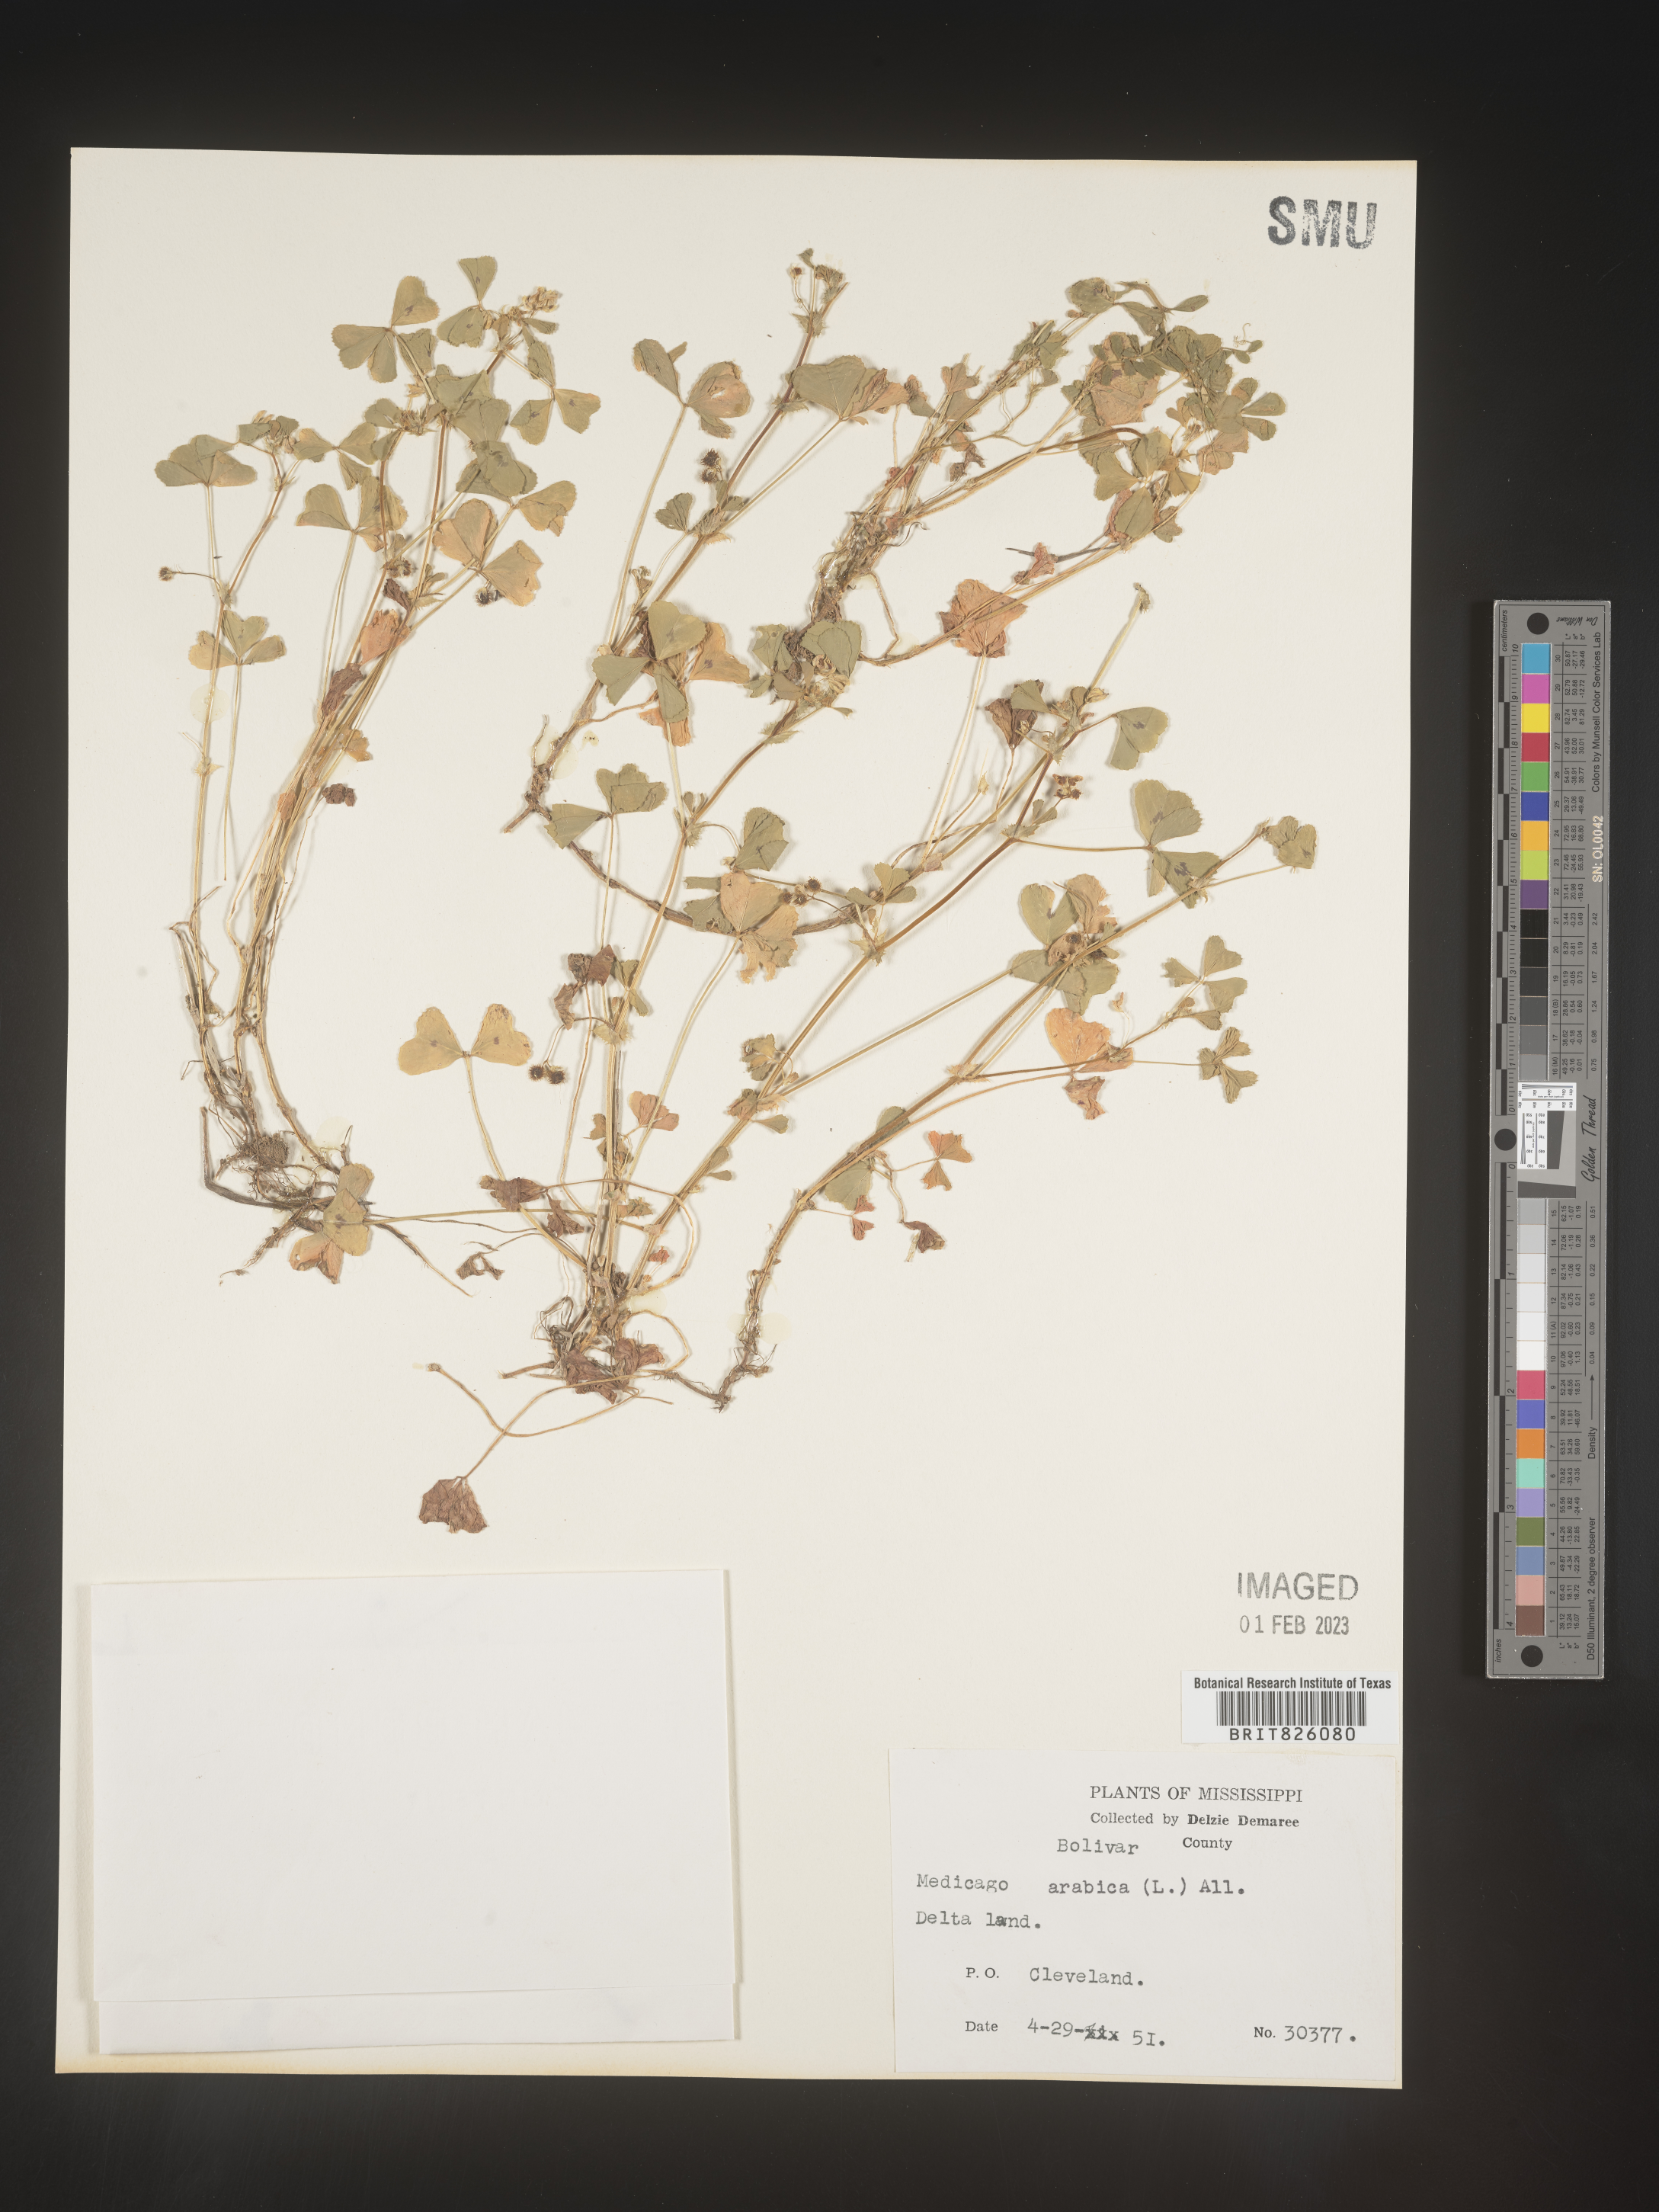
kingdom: Plantae
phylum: Tracheophyta
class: Magnoliopsida
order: Fabales
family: Fabaceae
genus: Medicago
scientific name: Medicago arabica
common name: Spotted medick
